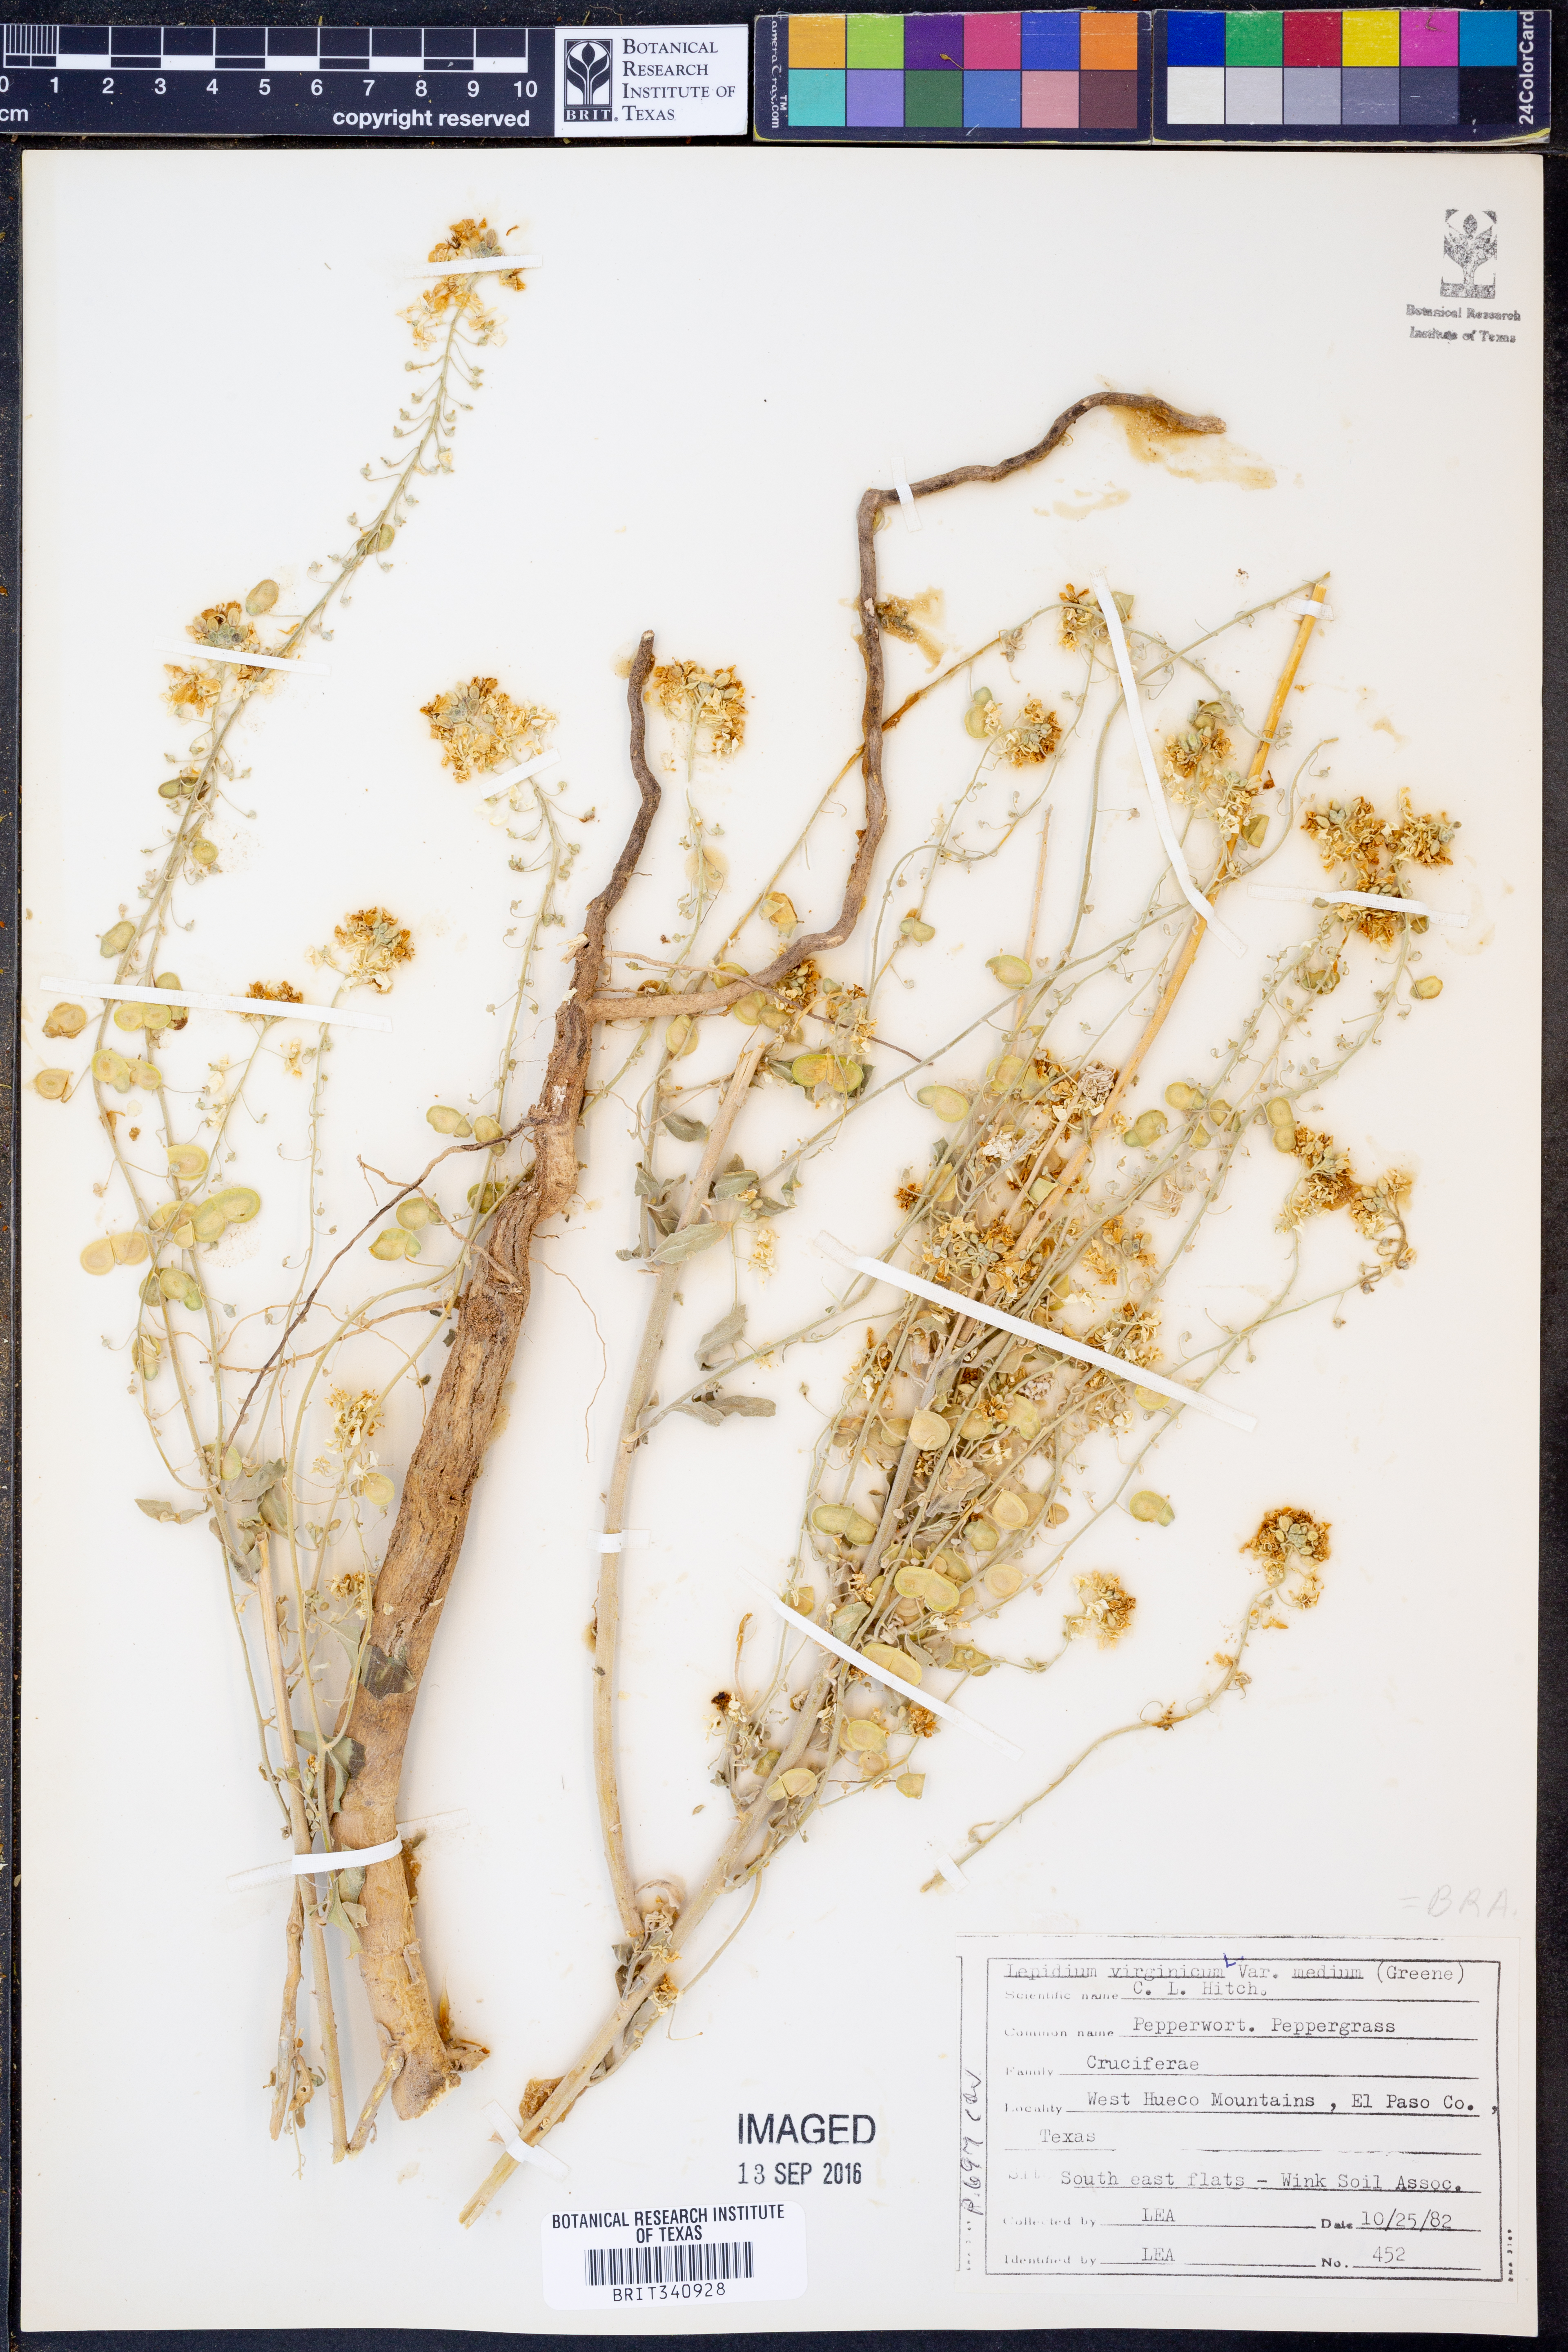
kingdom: Plantae
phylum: Tracheophyta
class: Magnoliopsida
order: Brassicales
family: Brassicaceae
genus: Lepidium
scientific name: Lepidium virginicum
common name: Least pepperwort
